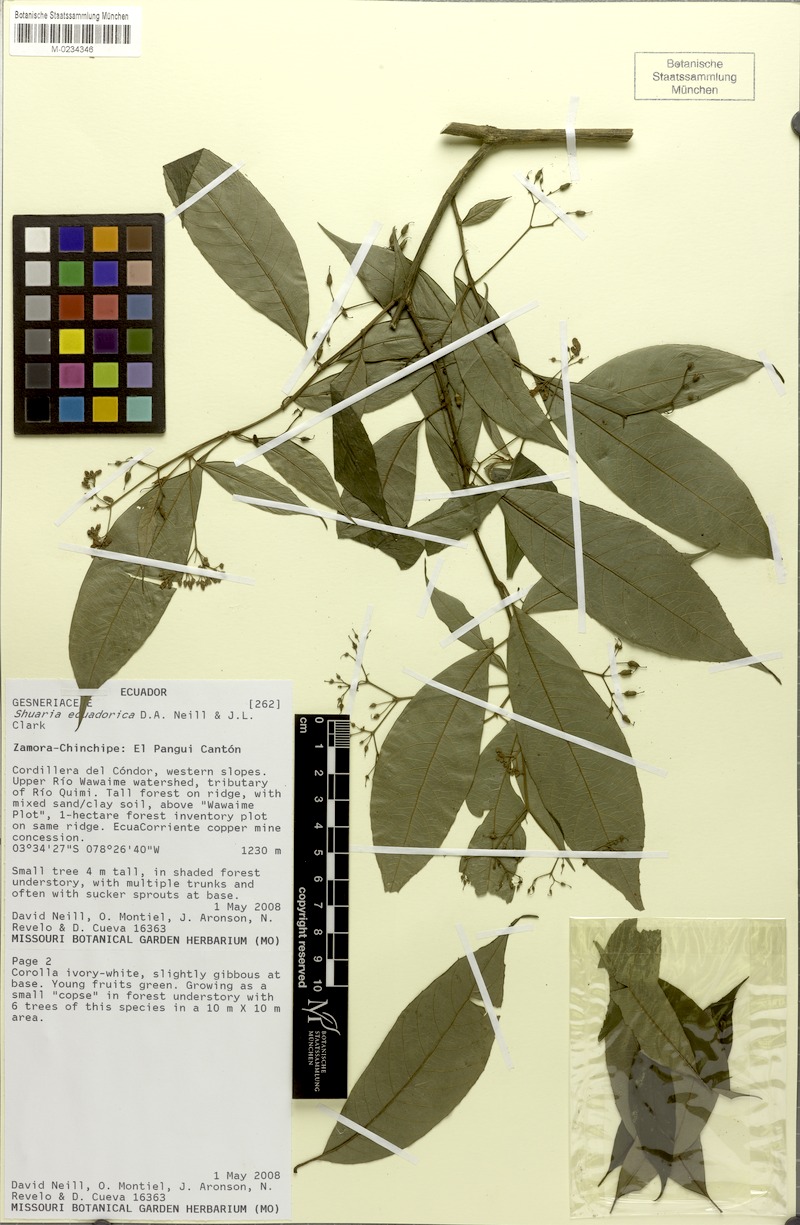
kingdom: Plantae
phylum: Tracheophyta
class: Magnoliopsida
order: Lamiales
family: Gesneriaceae
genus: Shuaria
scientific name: Shuaria ecuadorica
